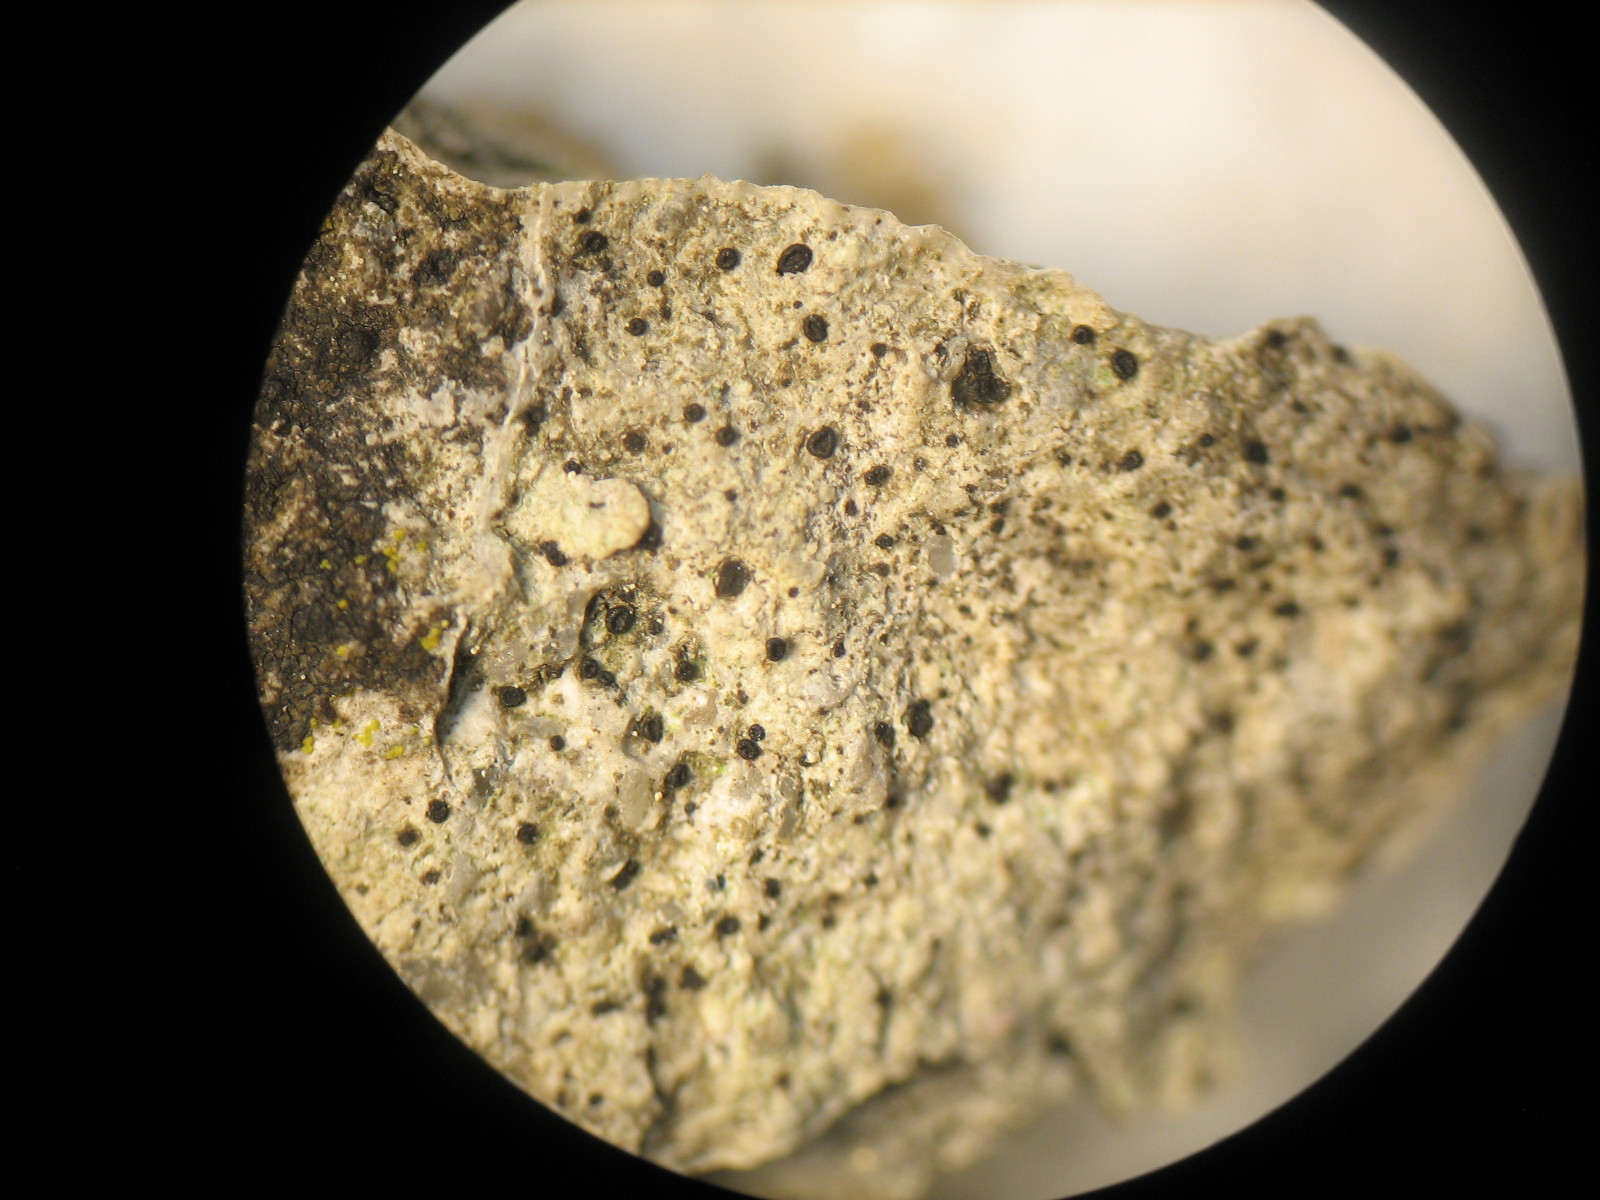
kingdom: Fungi
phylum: Ascomycota
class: Lecanoromycetes
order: Lecideales
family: Lecideaceae
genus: Clauzadea
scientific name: Clauzadea monticola
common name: bjerg-ruinlav
